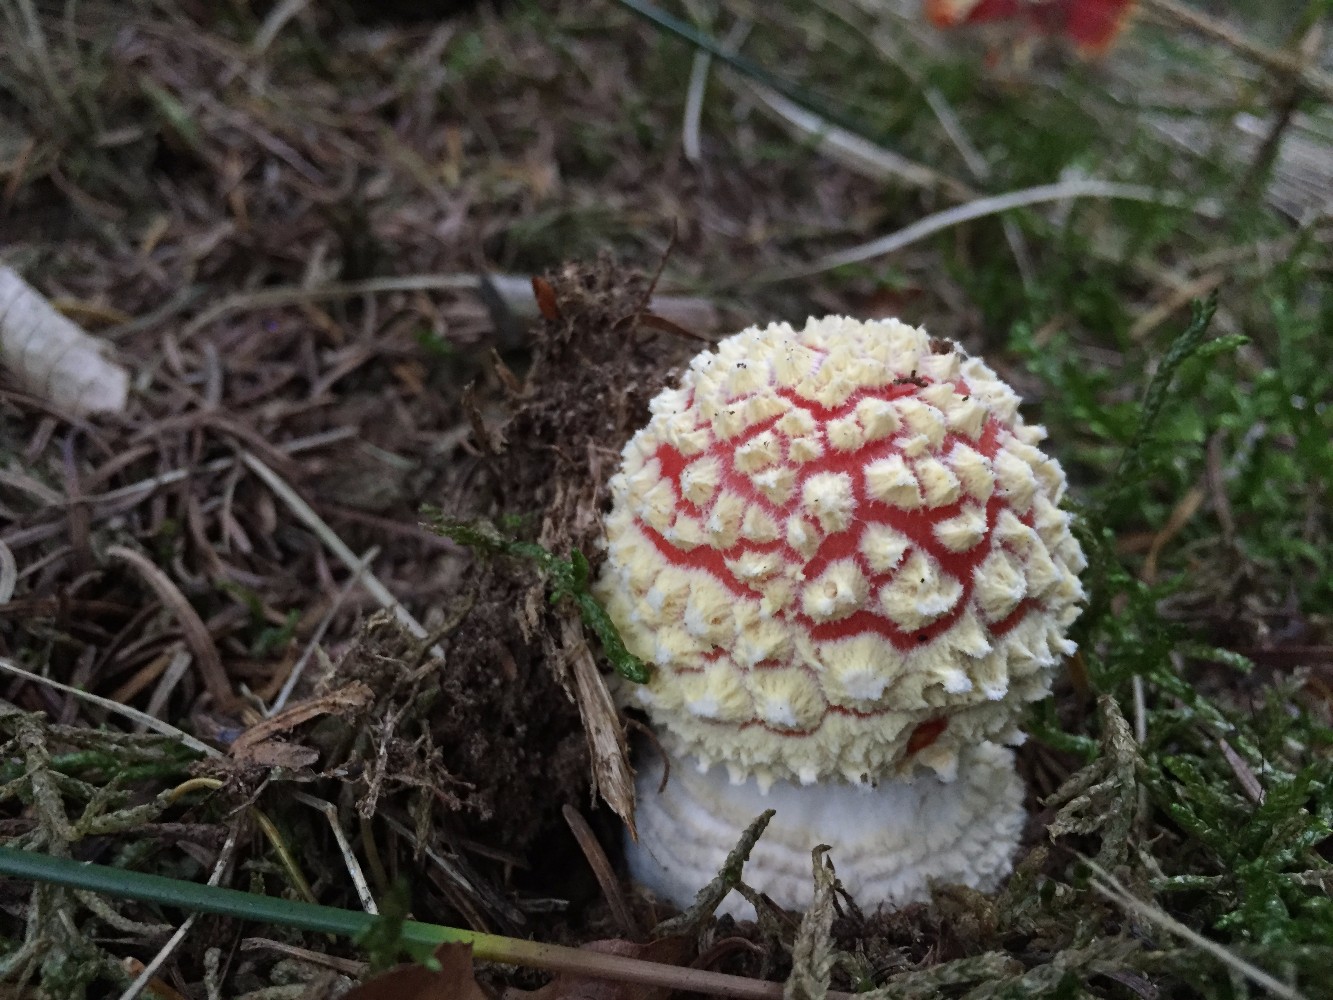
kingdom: Fungi
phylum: Basidiomycota
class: Agaricomycetes
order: Agaricales
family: Amanitaceae
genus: Amanita
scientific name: Amanita muscaria
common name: rød fluesvamp
